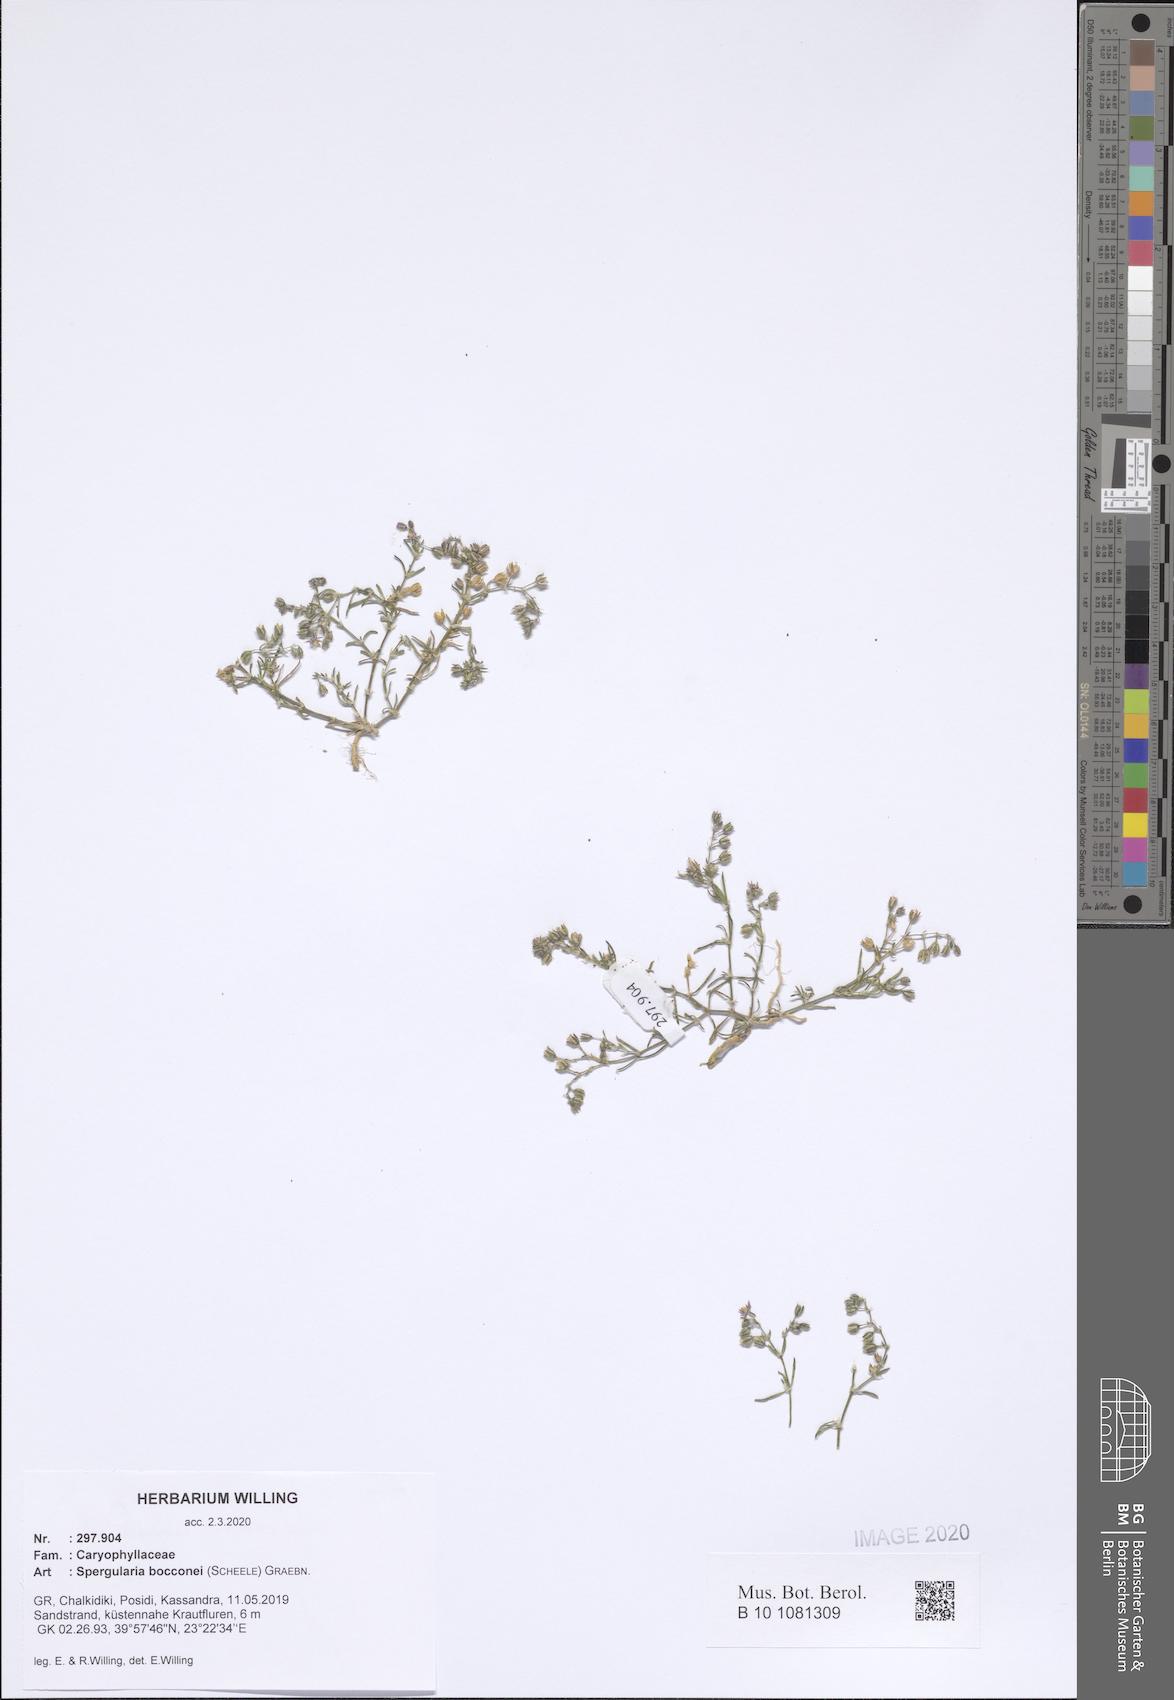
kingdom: Plantae
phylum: Tracheophyta
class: Magnoliopsida
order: Caryophyllales
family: Caryophyllaceae
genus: Spergularia
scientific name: Spergularia bocconei
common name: Greek sea-spurrey
